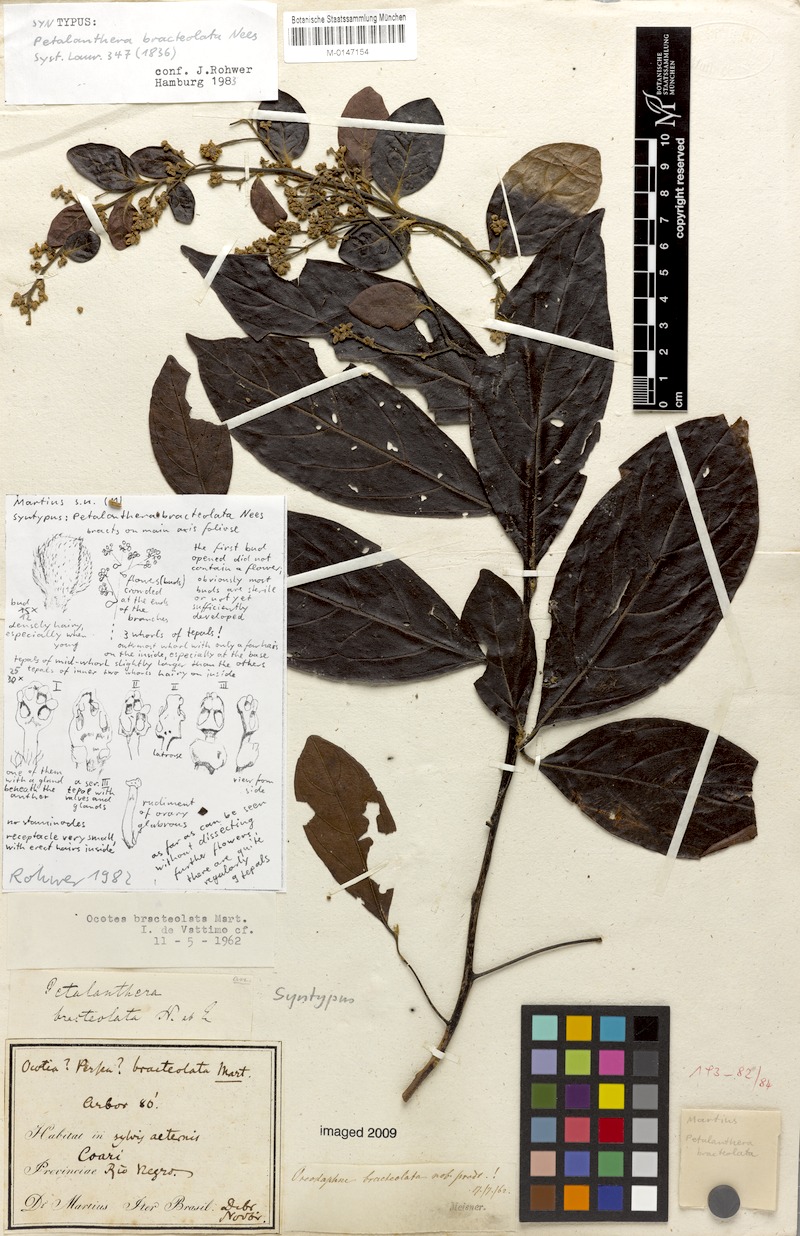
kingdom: Plantae
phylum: Tracheophyta
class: Magnoliopsida
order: Laurales
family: Lauraceae
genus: Ocotea
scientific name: Ocotea petalanthera
